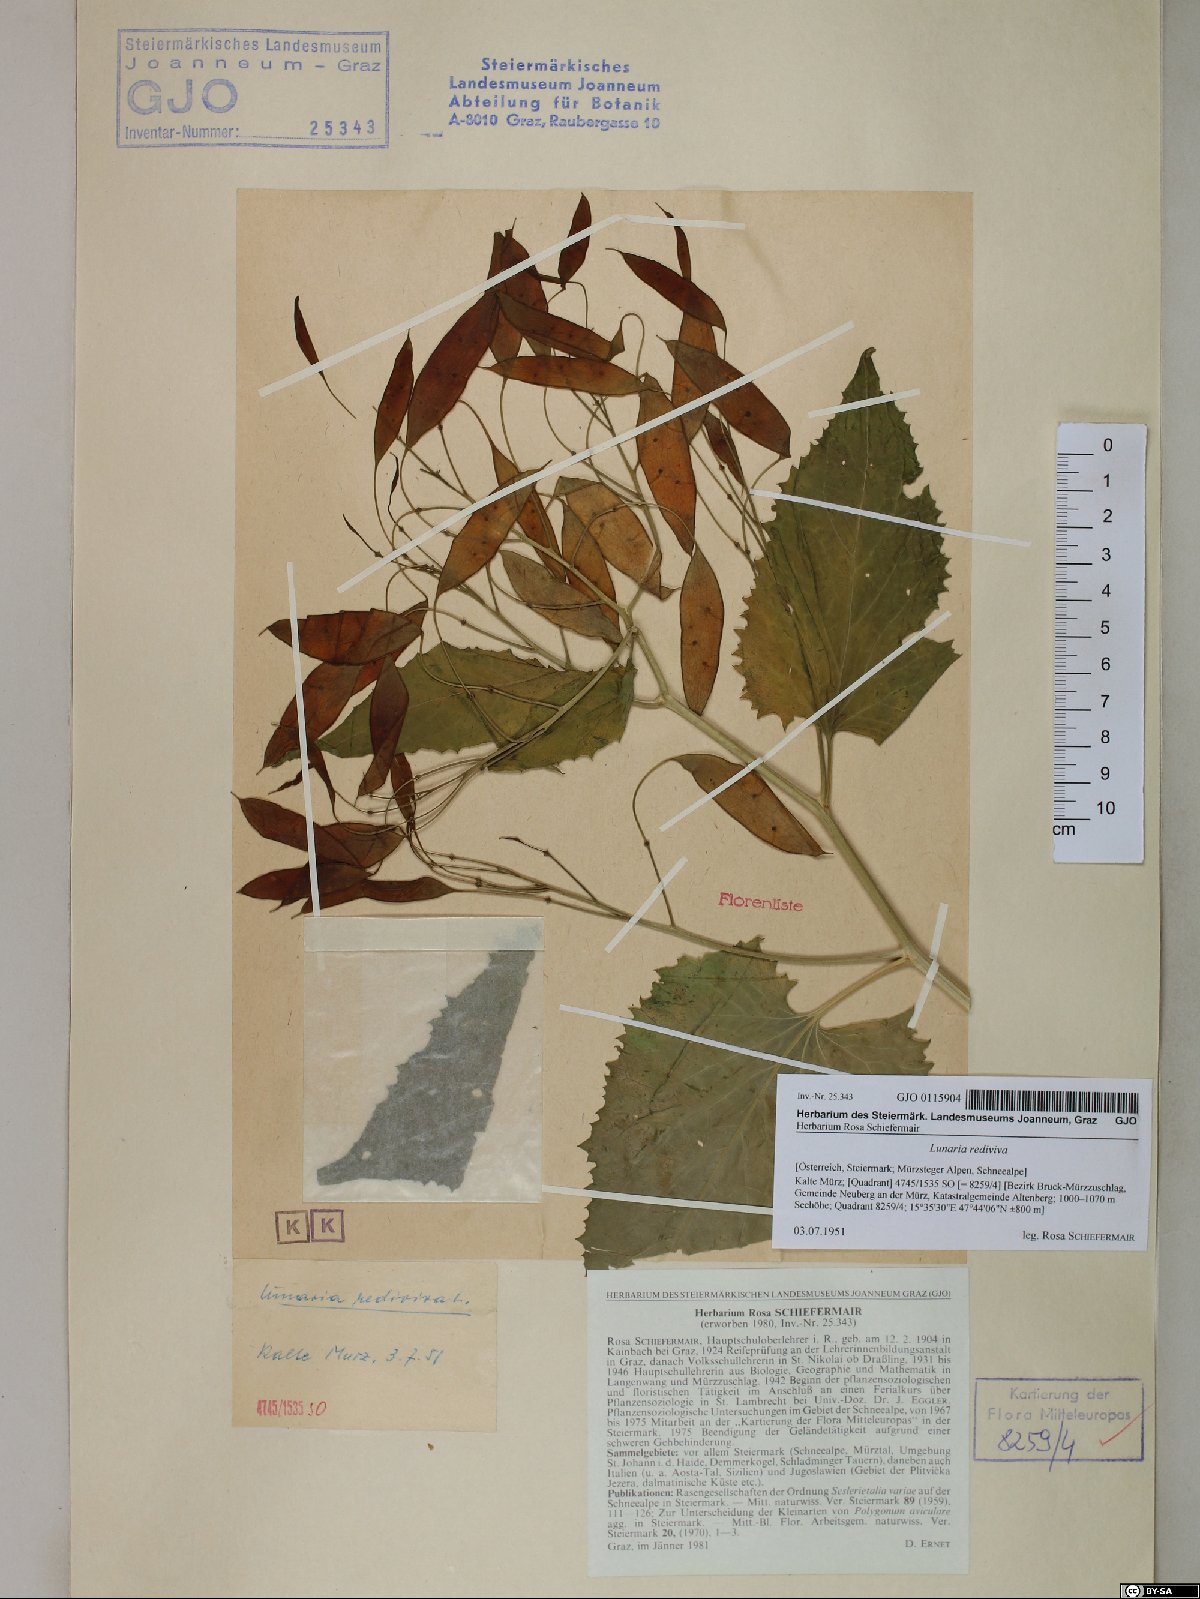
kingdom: Plantae
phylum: Tracheophyta
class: Magnoliopsida
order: Brassicales
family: Brassicaceae
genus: Lunaria
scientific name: Lunaria rediviva
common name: Perennial honesty
